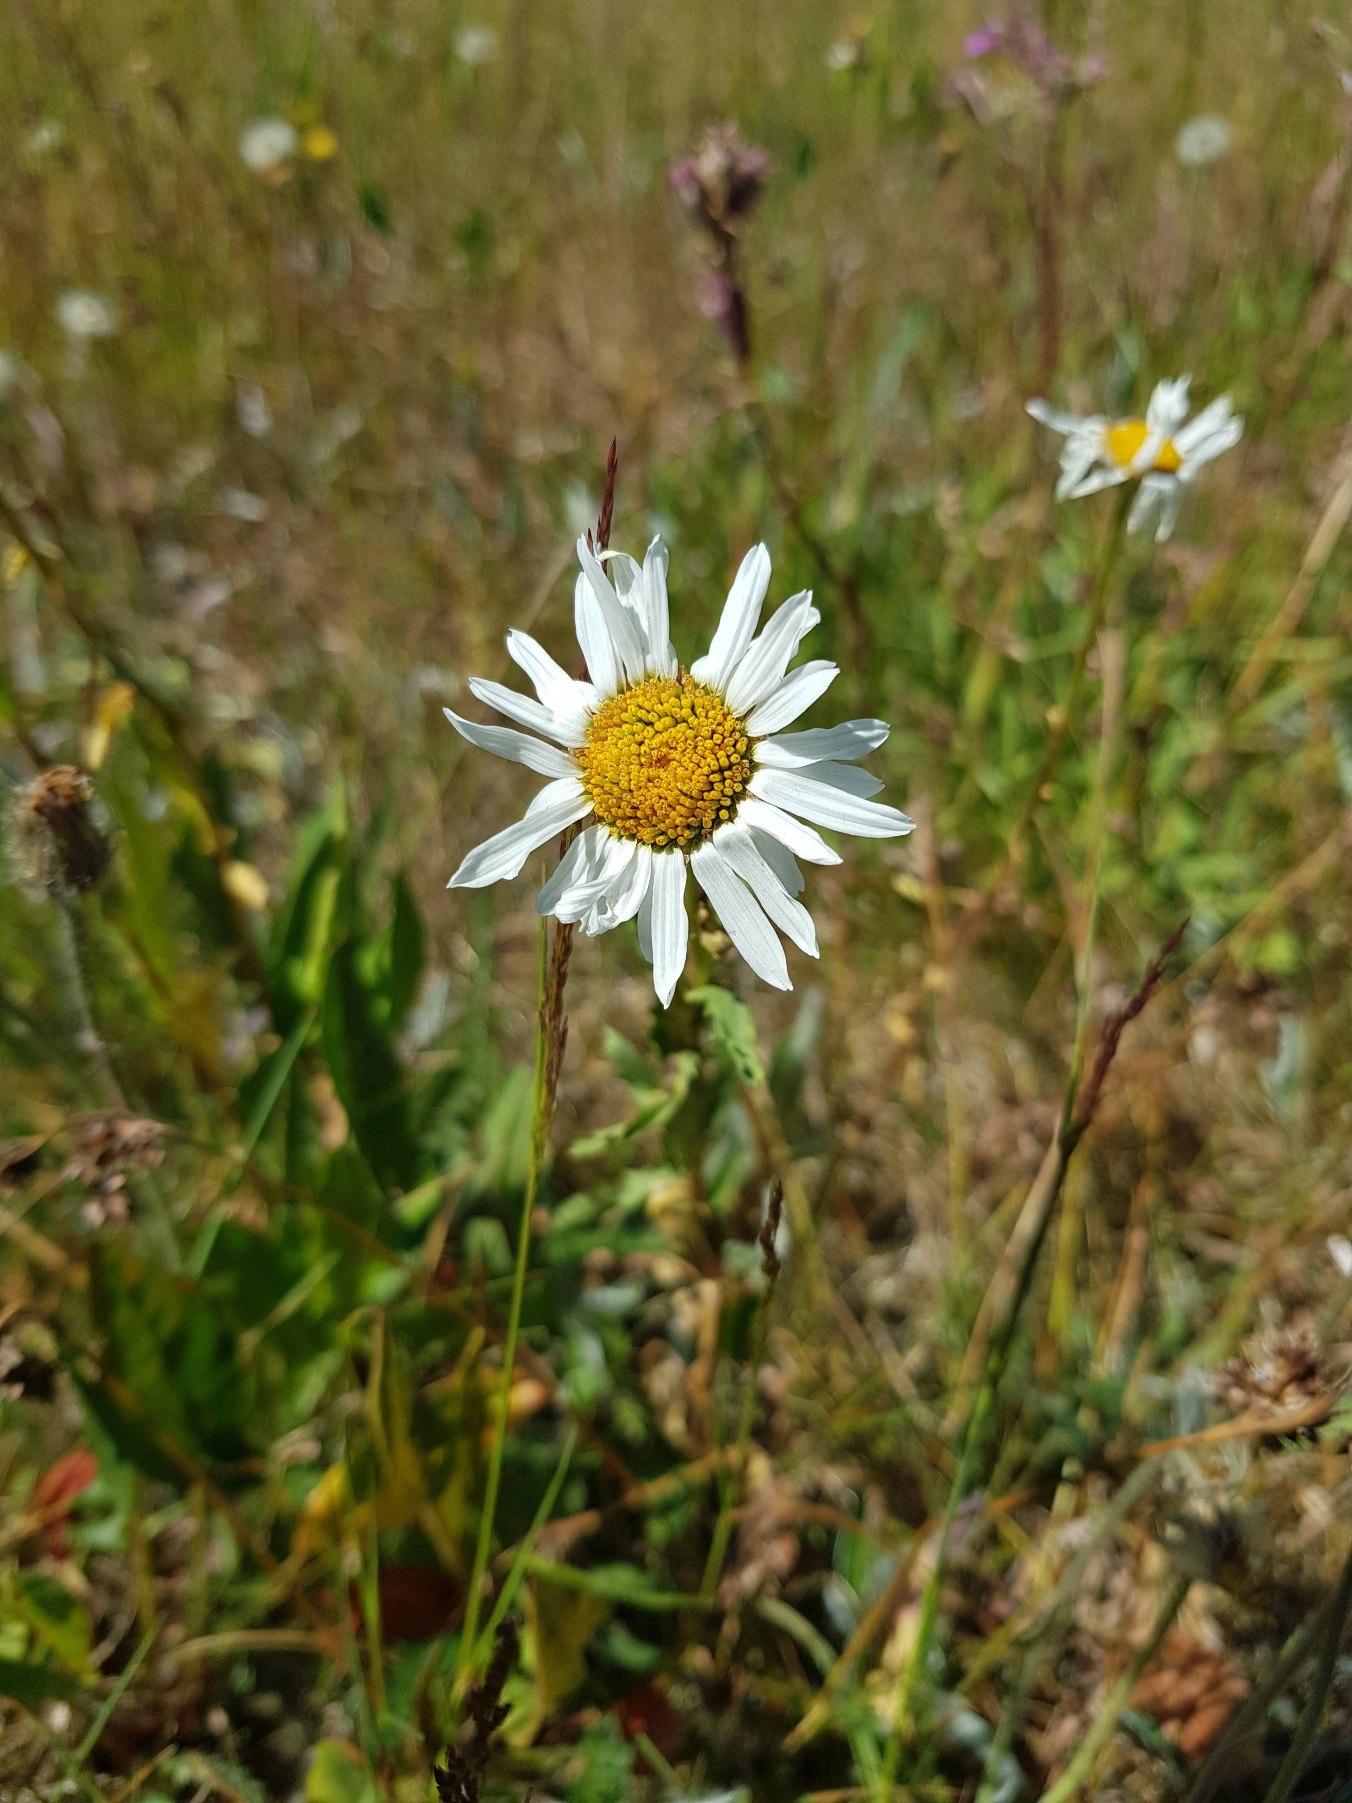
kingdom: Plantae
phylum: Tracheophyta
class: Magnoliopsida
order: Asterales
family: Asteraceae
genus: Leucanthemum
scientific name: Leucanthemum vulgare
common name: Hvid okseøje
